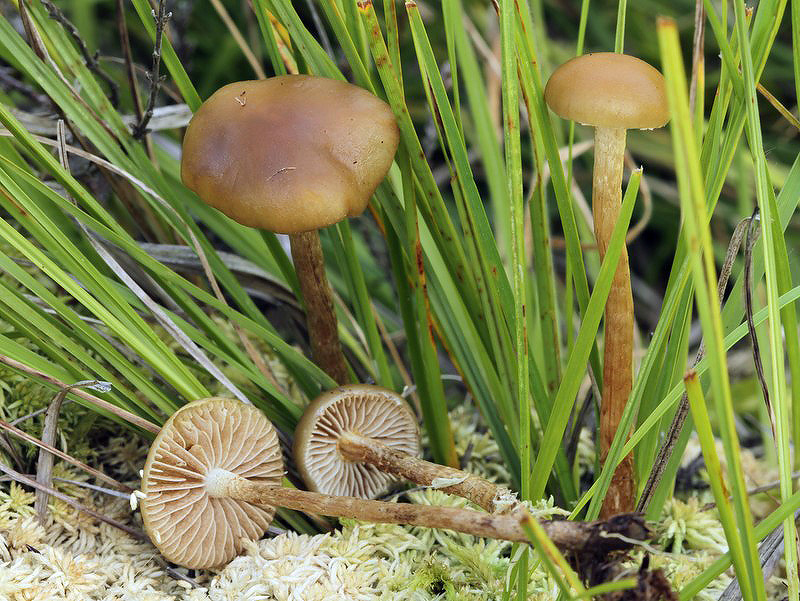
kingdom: Fungi
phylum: Basidiomycota
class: Agaricomycetes
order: Agaricales
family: Strophariaceae
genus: Hypholoma
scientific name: Hypholoma myosotis
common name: slimet svovlhat
